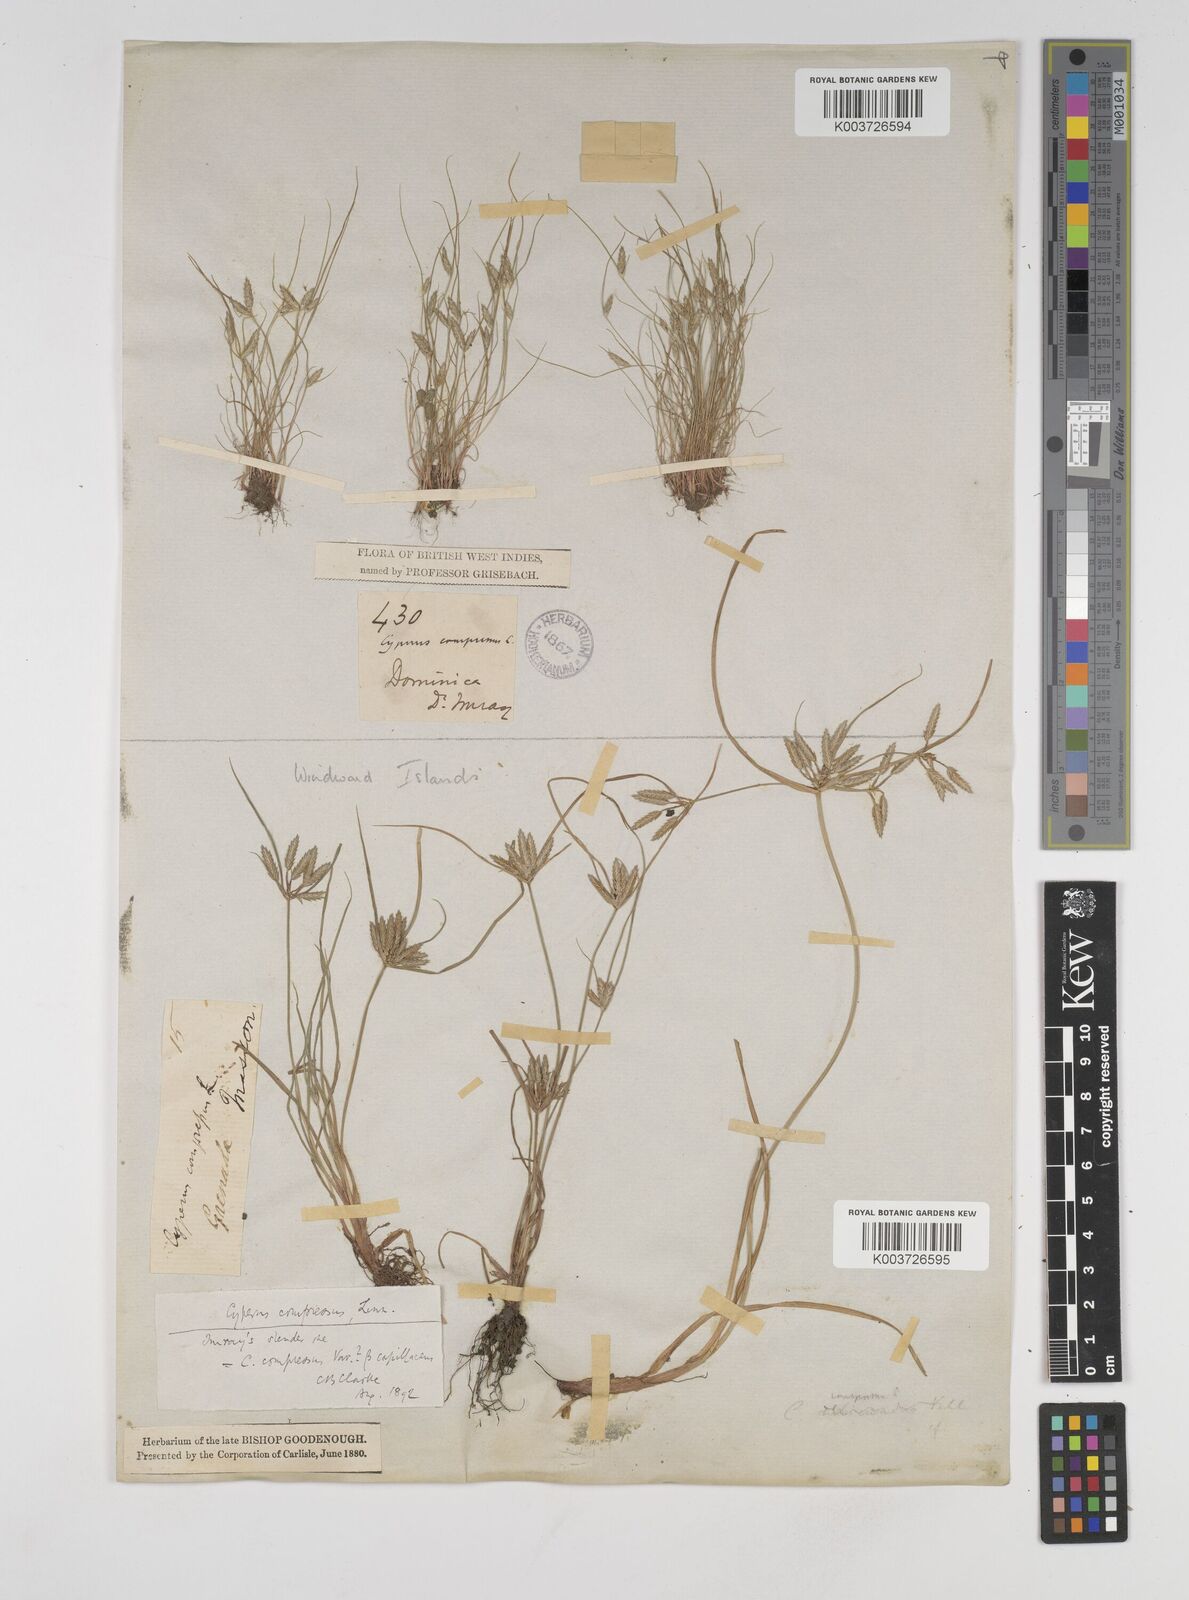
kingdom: Plantae
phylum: Tracheophyta
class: Liliopsida
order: Poales
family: Cyperaceae
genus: Cyperus
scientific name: Cyperus compressus
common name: Poorland flatsedge
